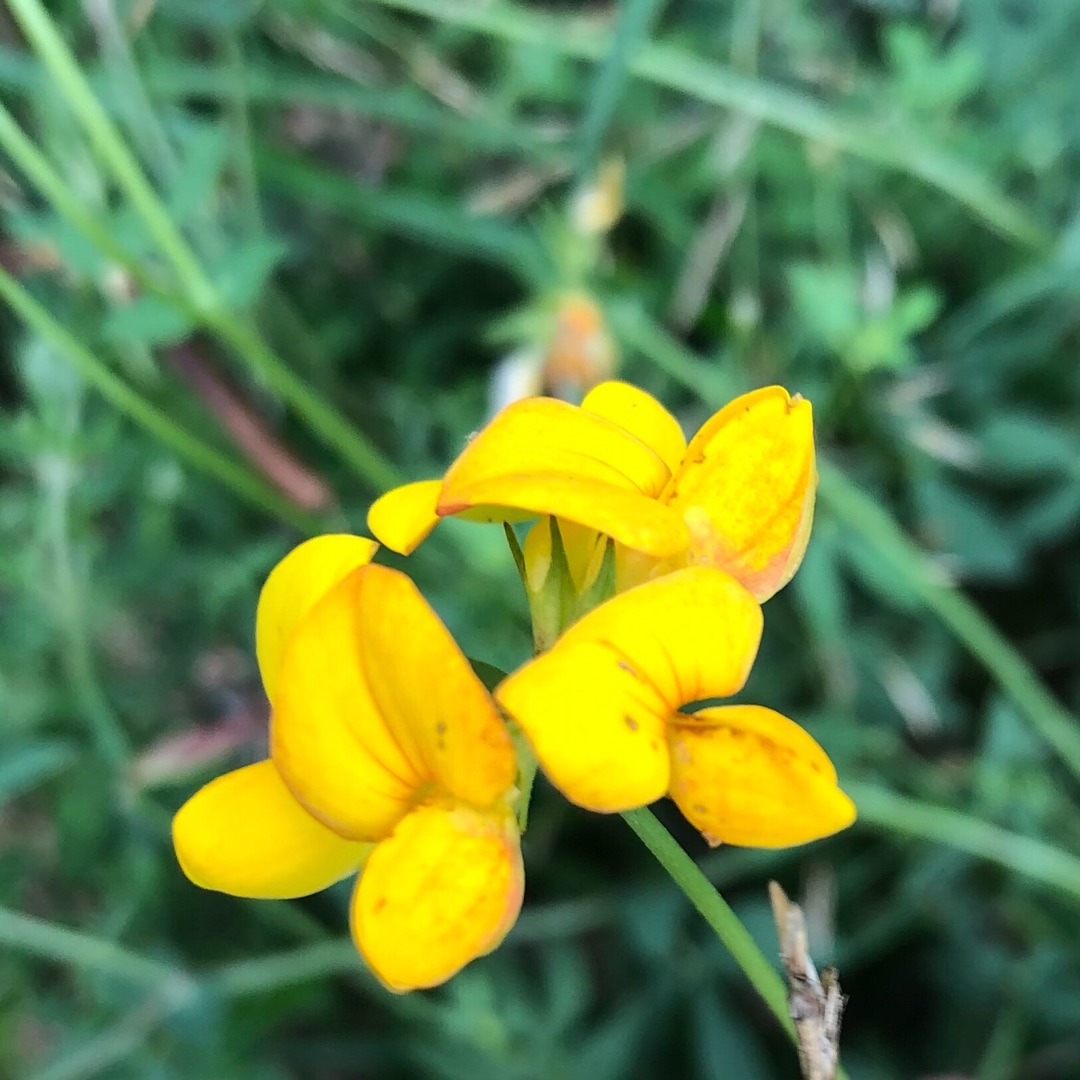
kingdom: Plantae
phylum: Tracheophyta
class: Magnoliopsida
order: Fabales
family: Fabaceae
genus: Lotus
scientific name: Lotus corniculatus
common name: Almindelig kællingetand
